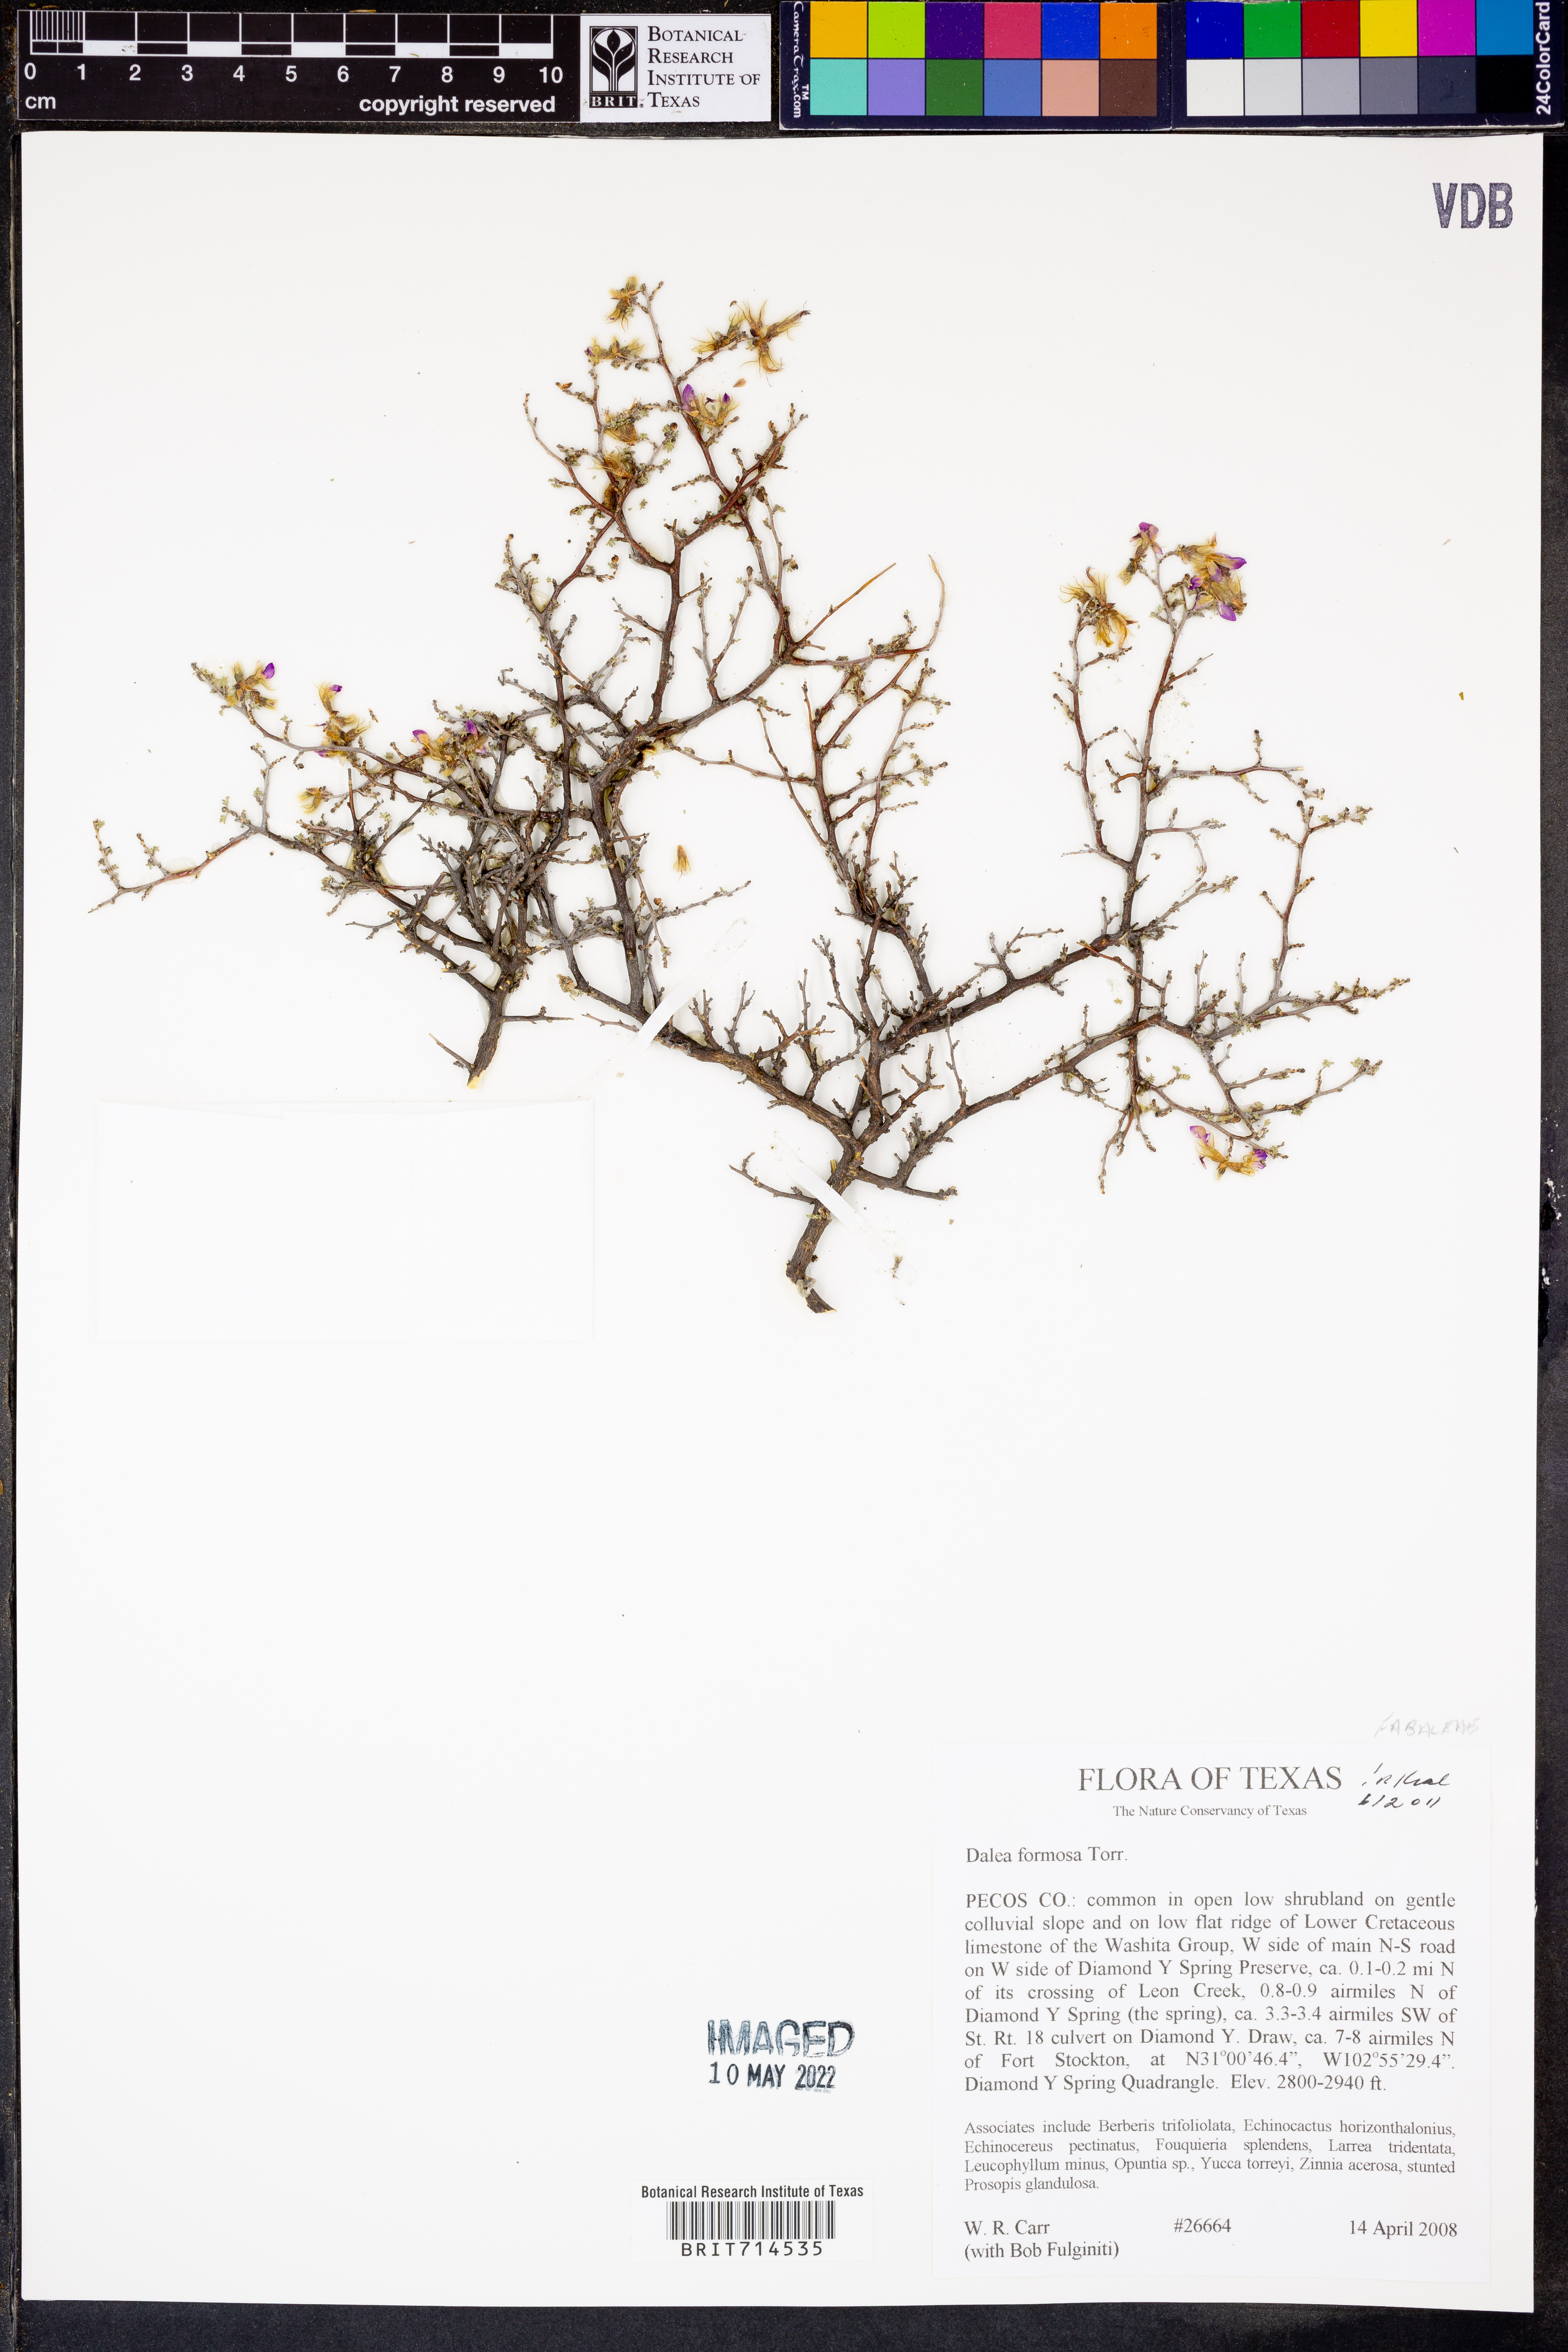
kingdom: Plantae
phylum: Tracheophyta
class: Magnoliopsida
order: Fabales
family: Fabaceae
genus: Dalea
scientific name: Dalea formosa
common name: Feather-plume dalea
